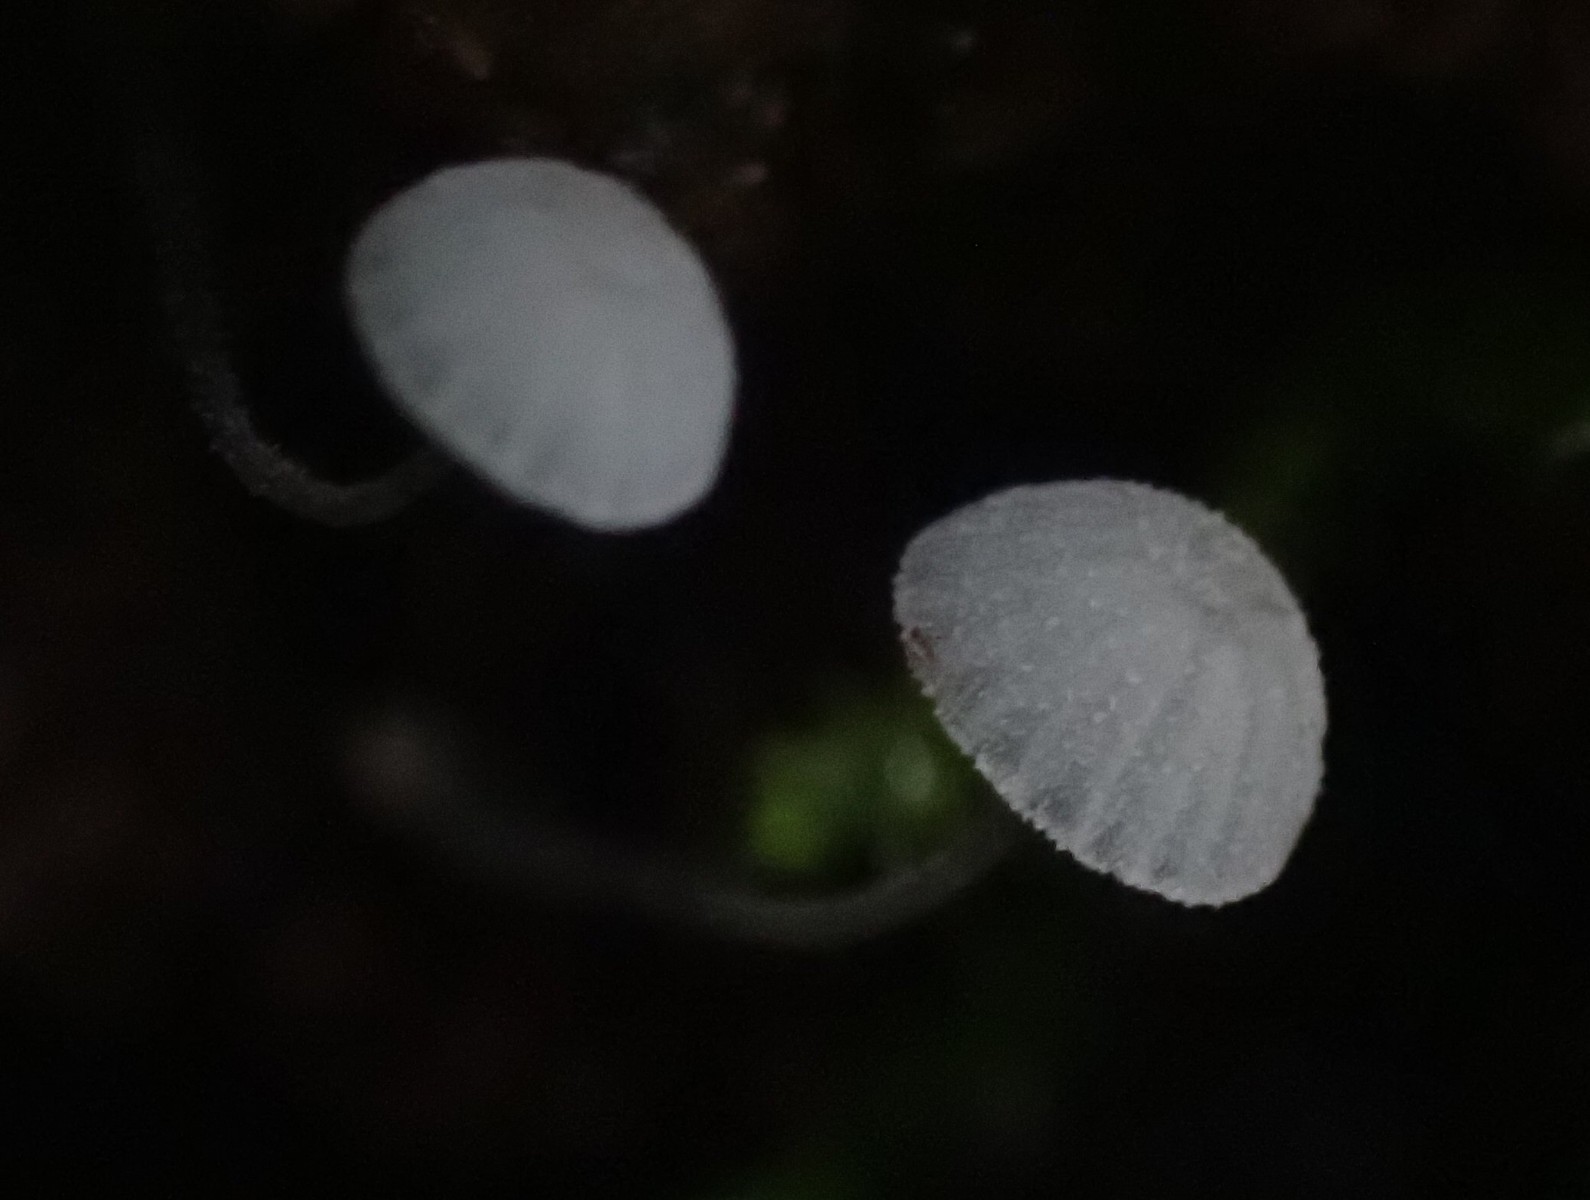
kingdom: Fungi
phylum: Basidiomycota
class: Agaricomycetes
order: Agaricales
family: Mycenaceae
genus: Mycena
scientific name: Mycena tenerrima
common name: pudret huesvamp
